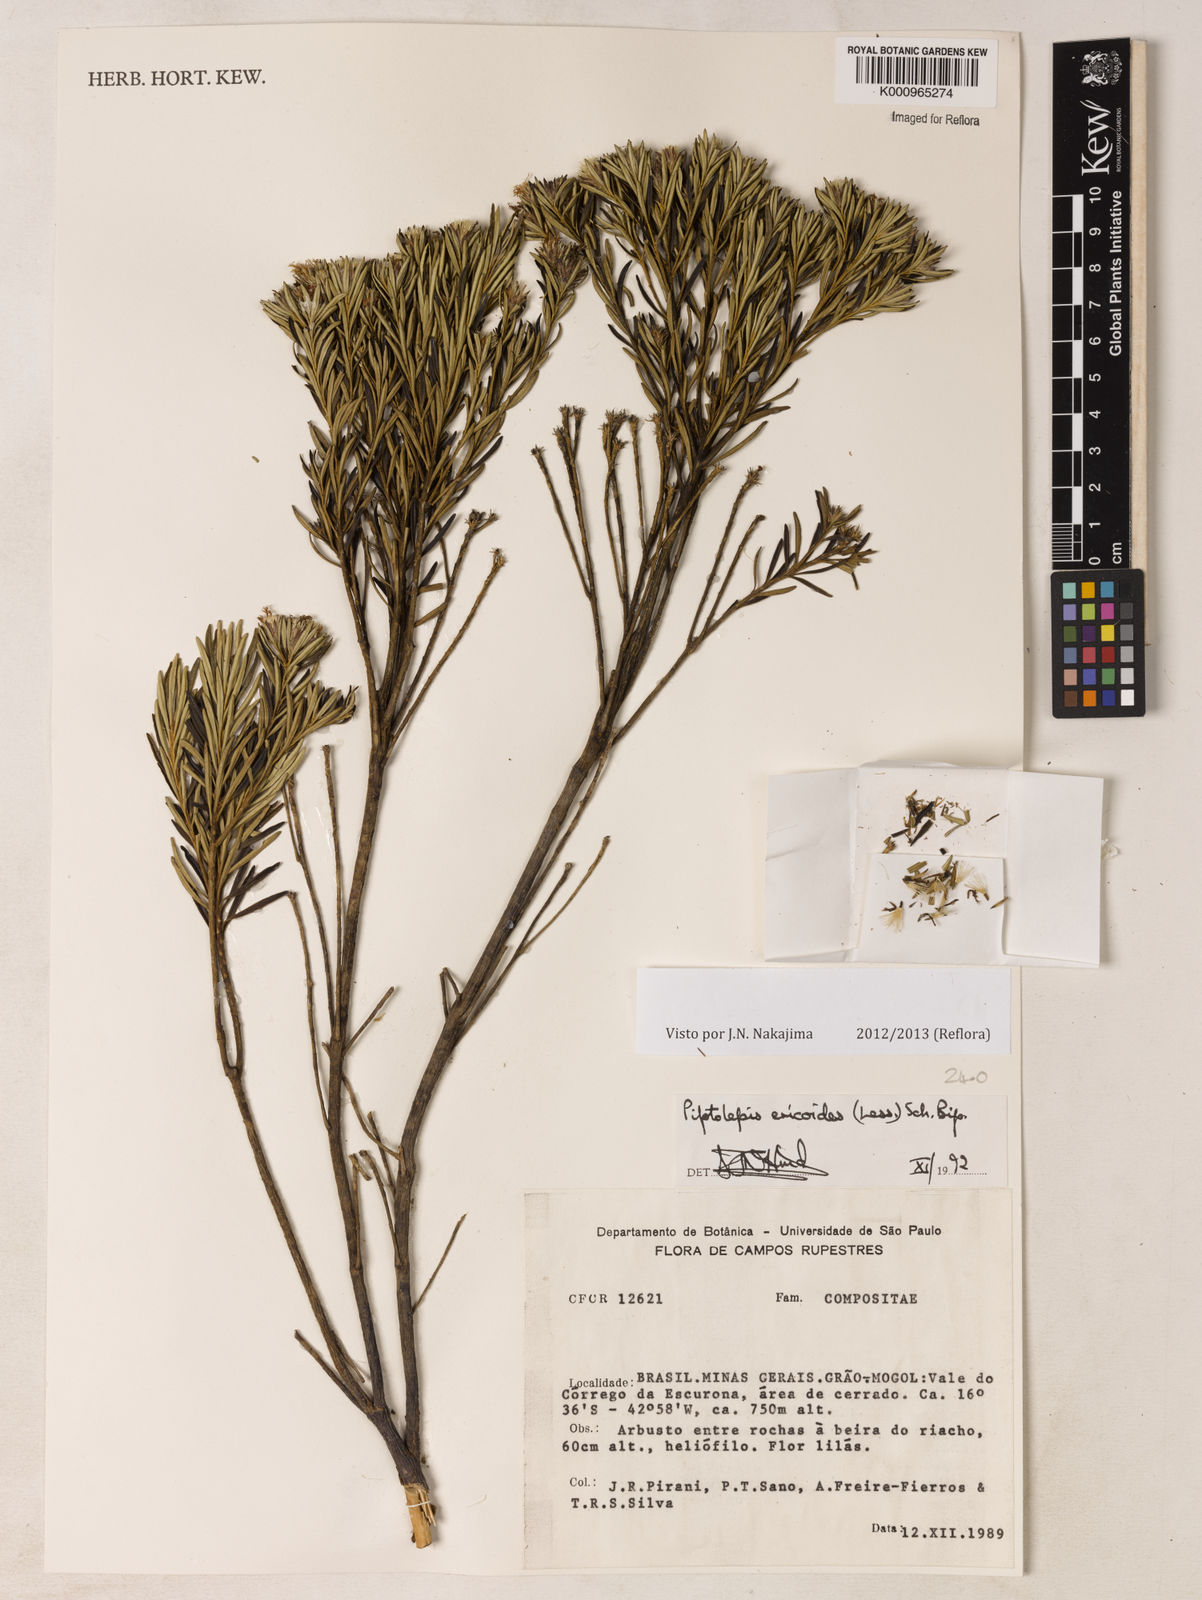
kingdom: Plantae
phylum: Tracheophyta
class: Magnoliopsida
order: Asterales
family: Asteraceae
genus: Piptolepis
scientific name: Piptolepis ericoides
